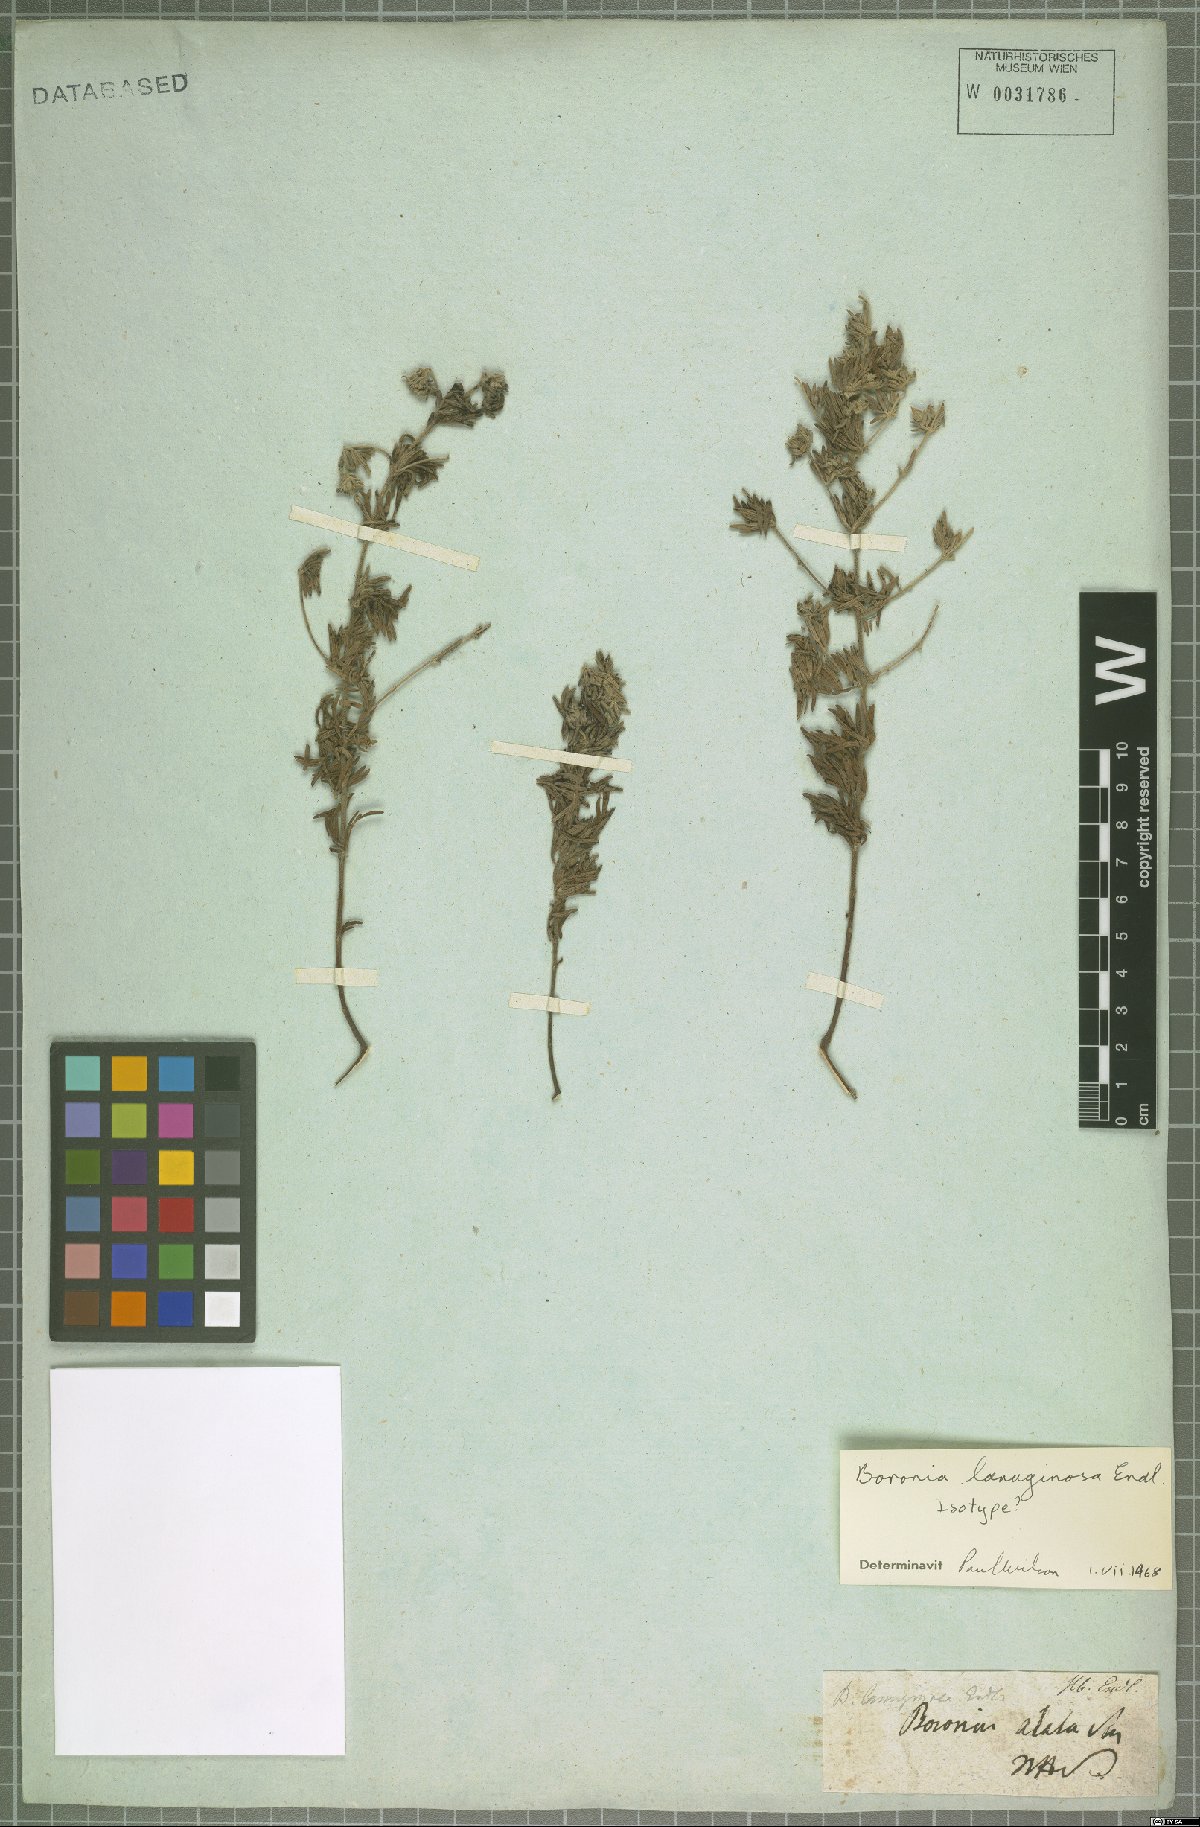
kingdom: Plantae
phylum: Tracheophyta
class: Magnoliopsida
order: Sapindales
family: Rutaceae
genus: Boronia
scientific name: Boronia lanuginosa
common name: Red boronia
